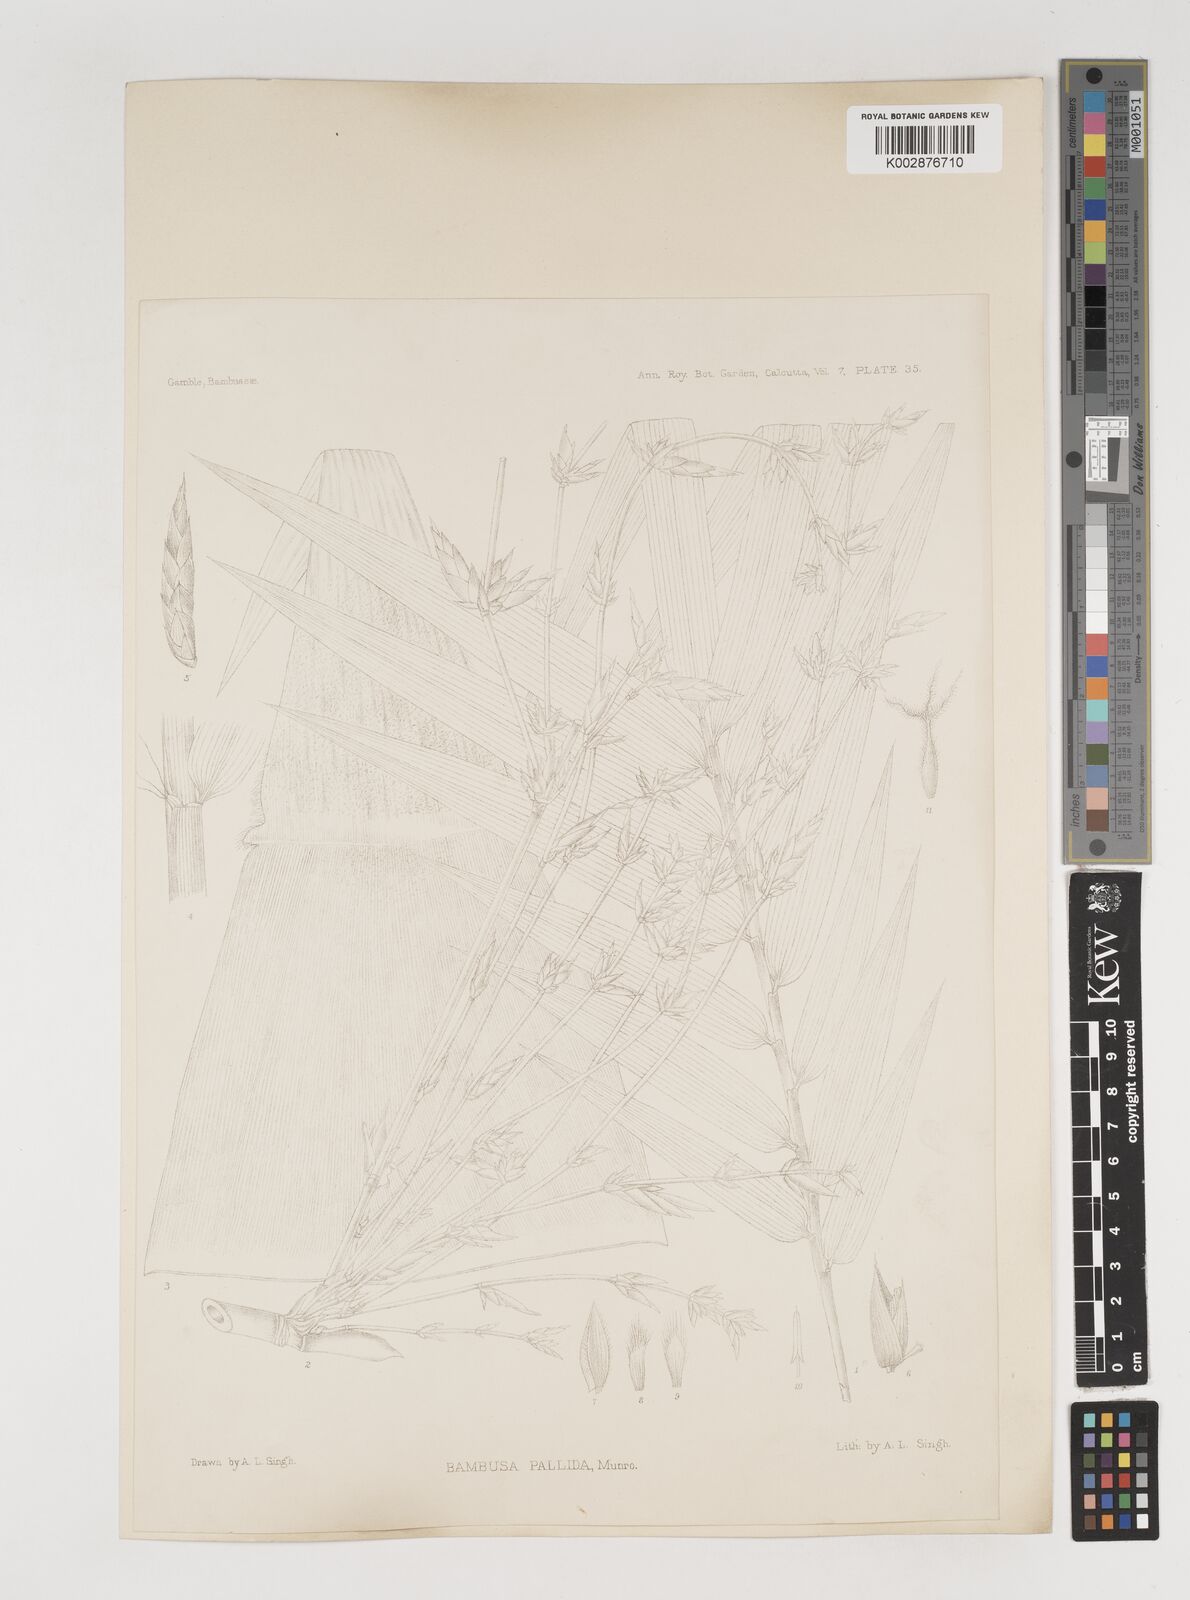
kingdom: Plantae
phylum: Tracheophyta
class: Liliopsida
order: Poales
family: Poaceae
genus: Bambusa
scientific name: Bambusa pallida
